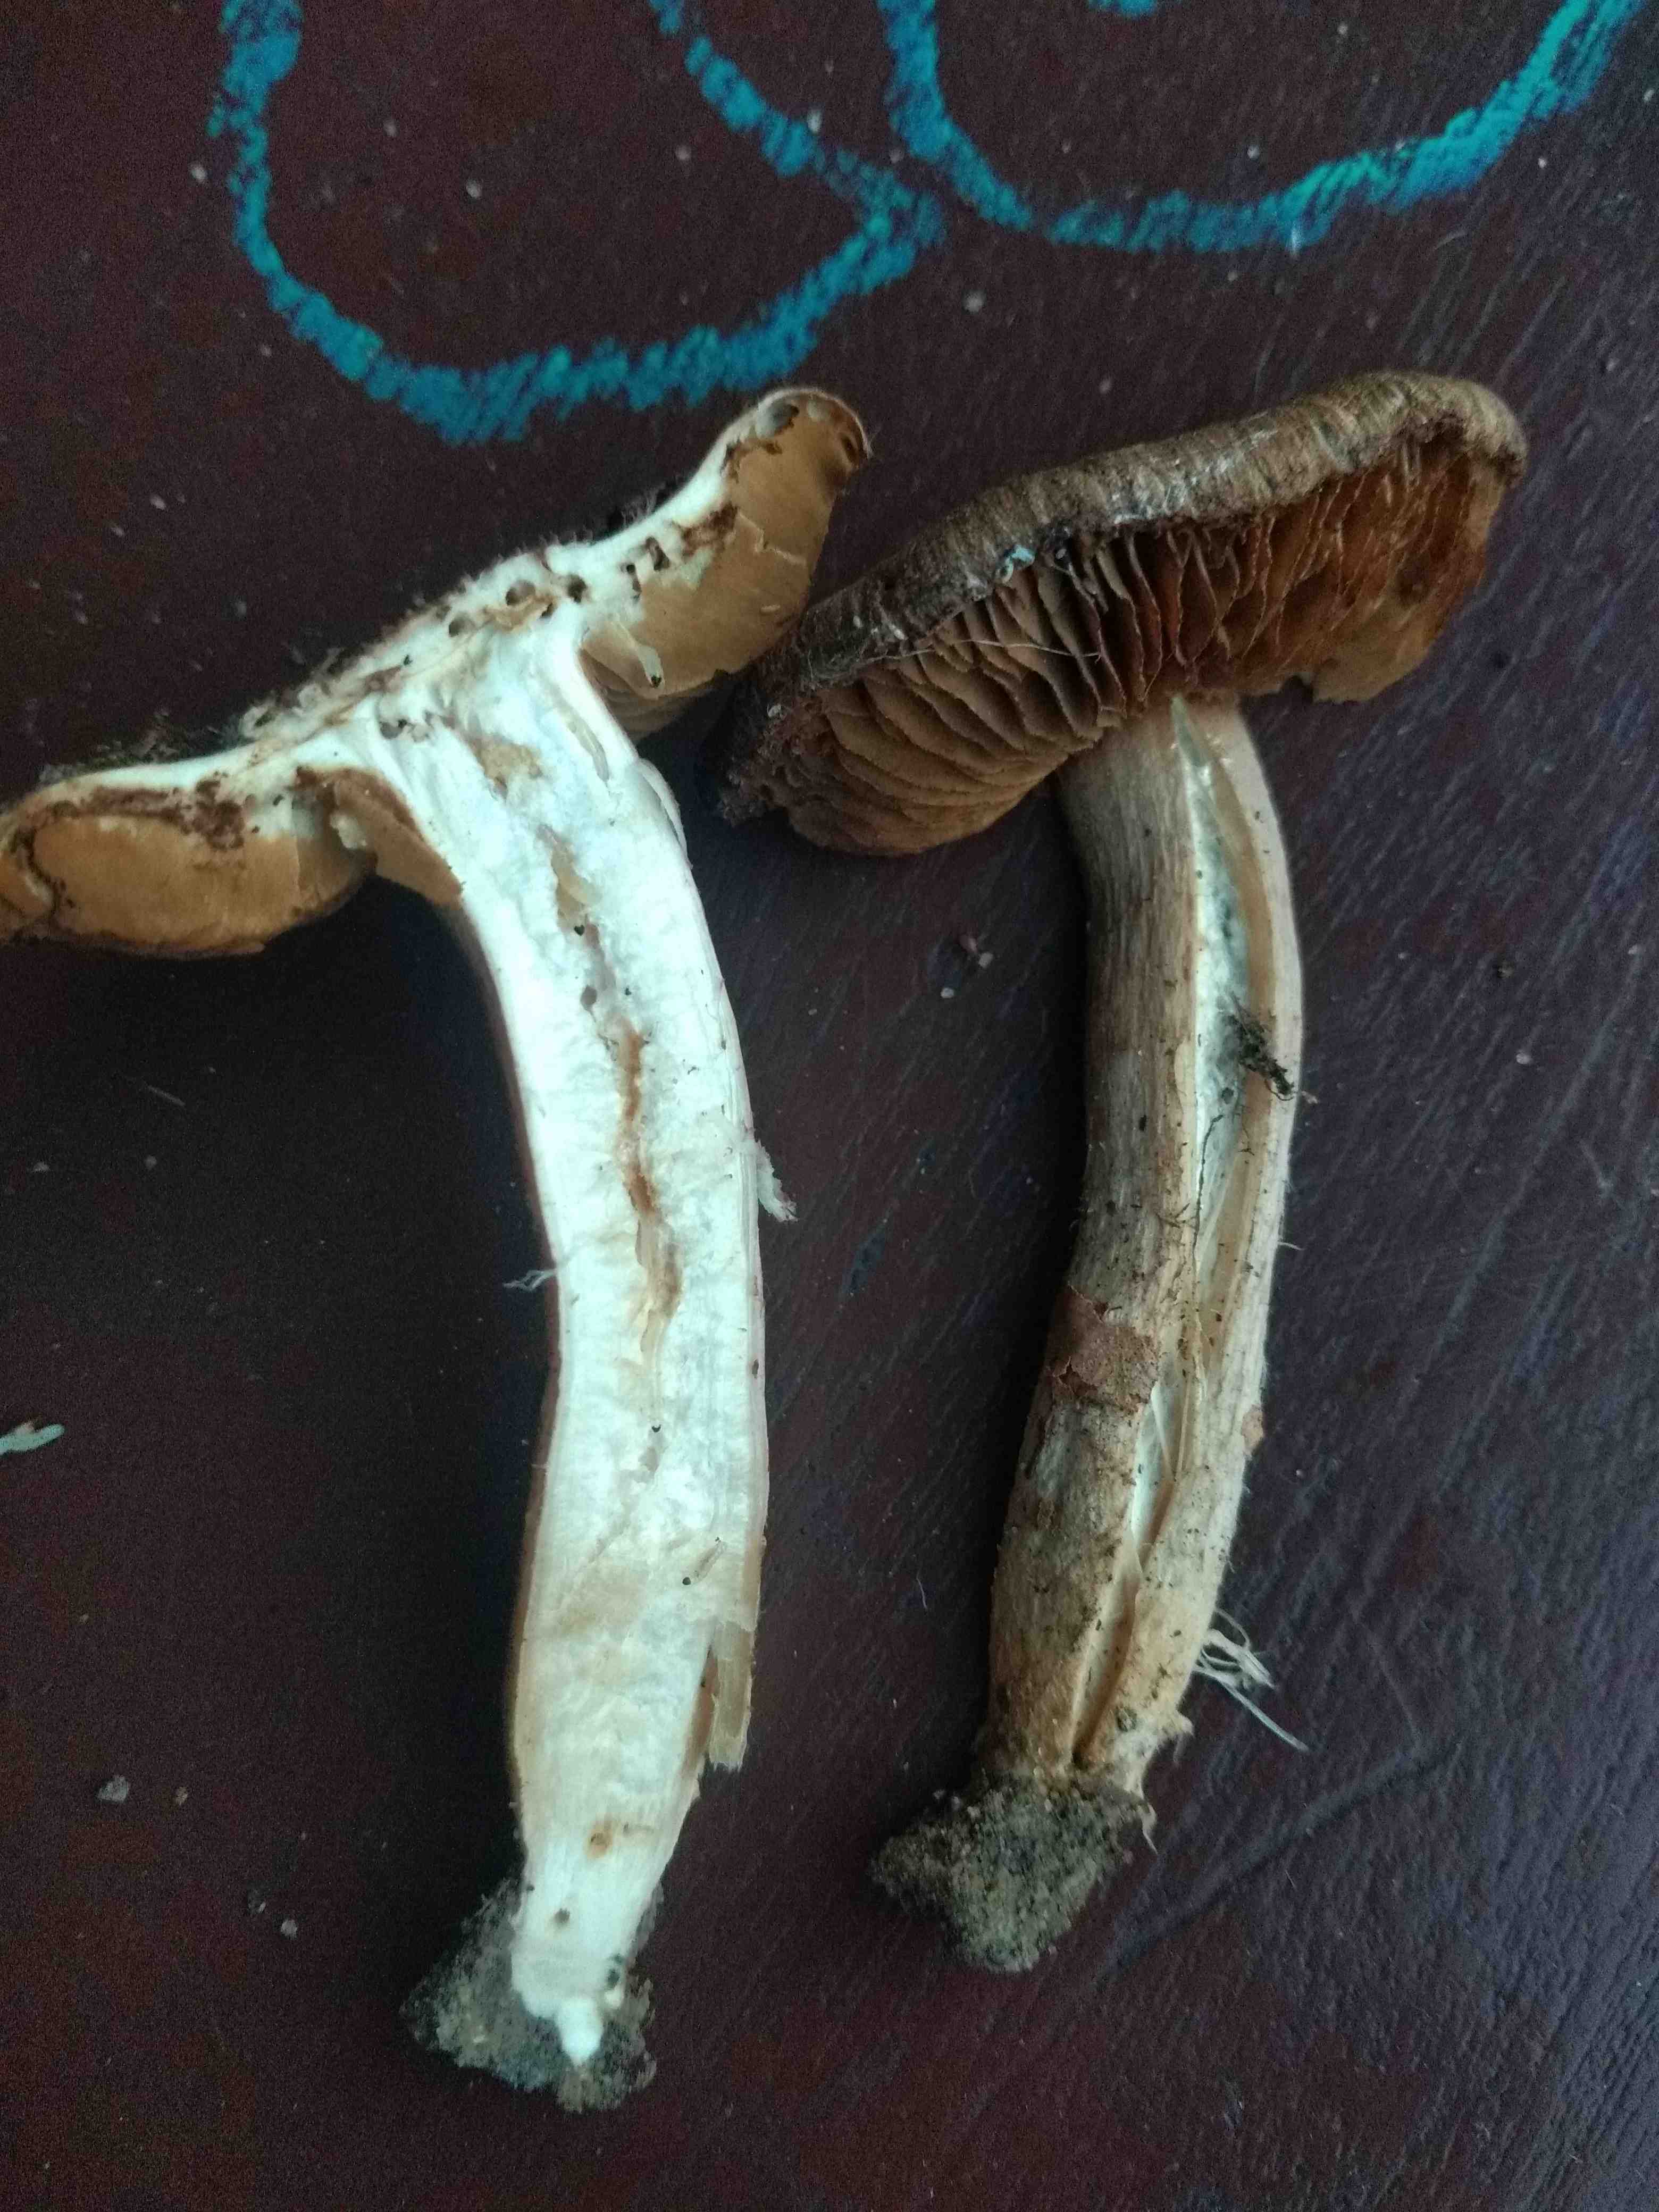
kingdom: Fungi
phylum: Basidiomycota
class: Agaricomycetes
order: Agaricales
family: Inocybaceae
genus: Inocybe
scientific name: Inocybe
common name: trævlhat
